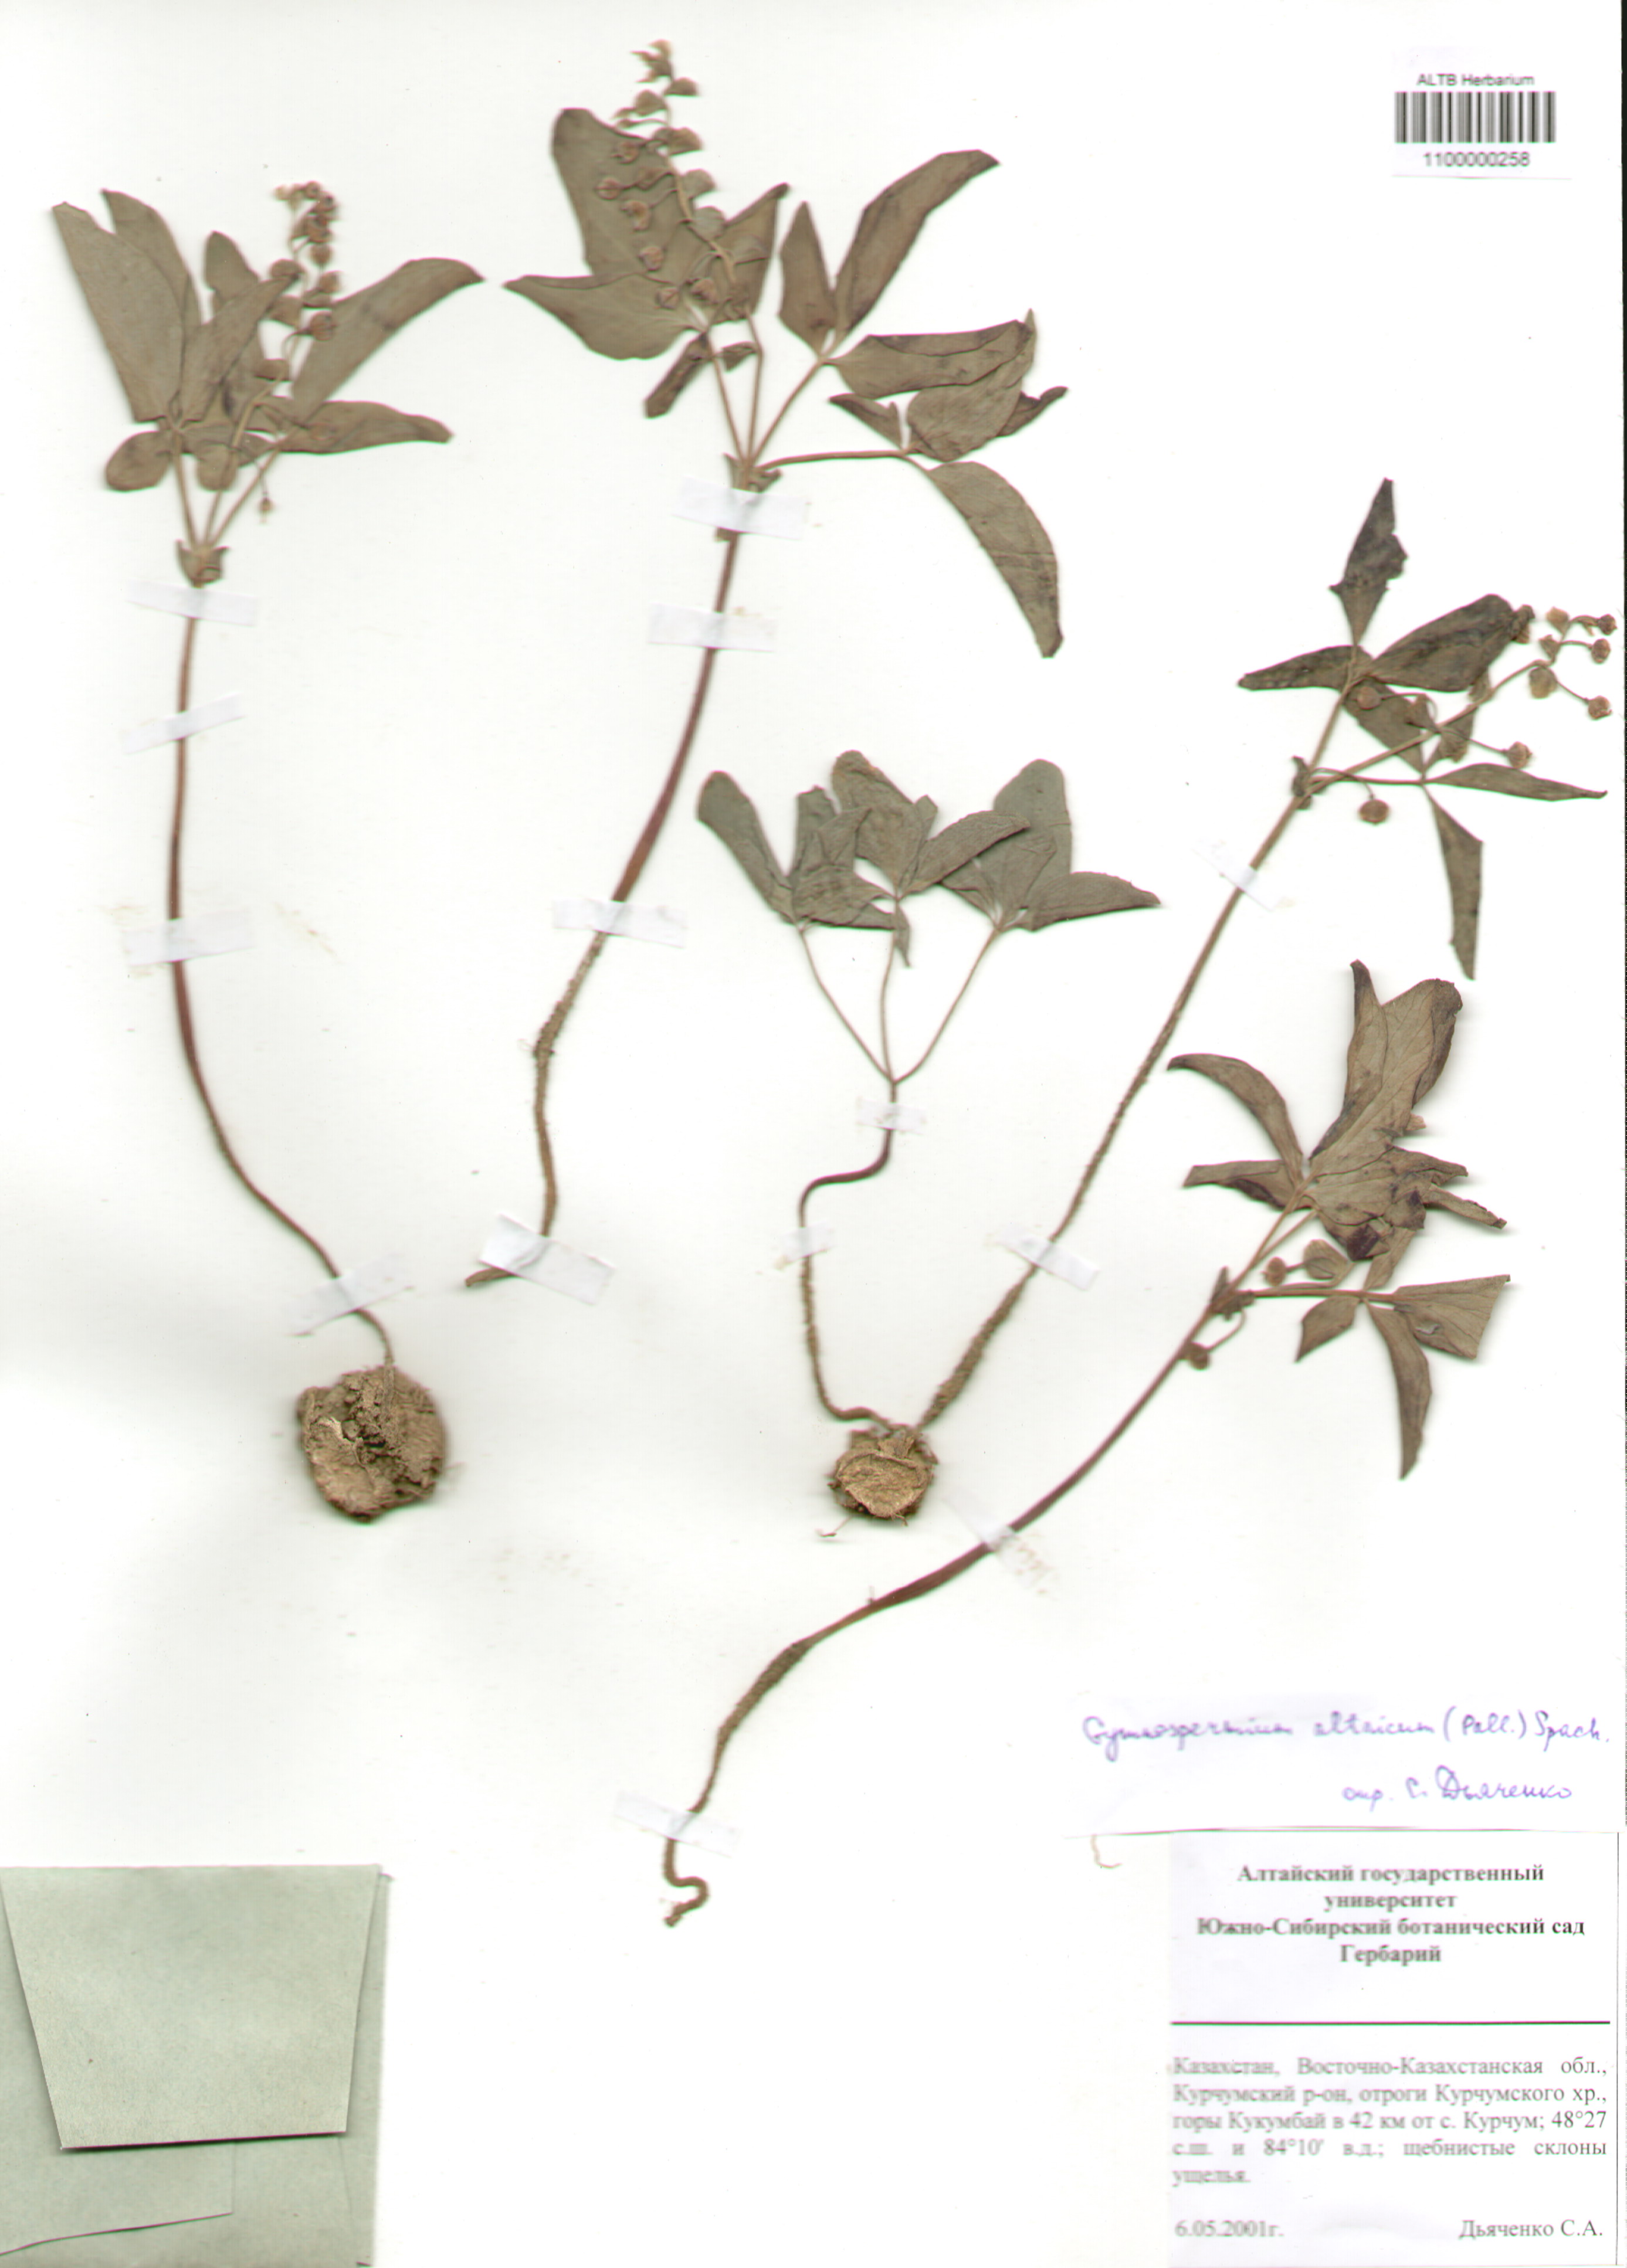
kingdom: Plantae
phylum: Tracheophyta
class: Magnoliopsida
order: Ranunculales
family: Berberidaceae
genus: Gymnospermium
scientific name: Gymnospermium altaicum
